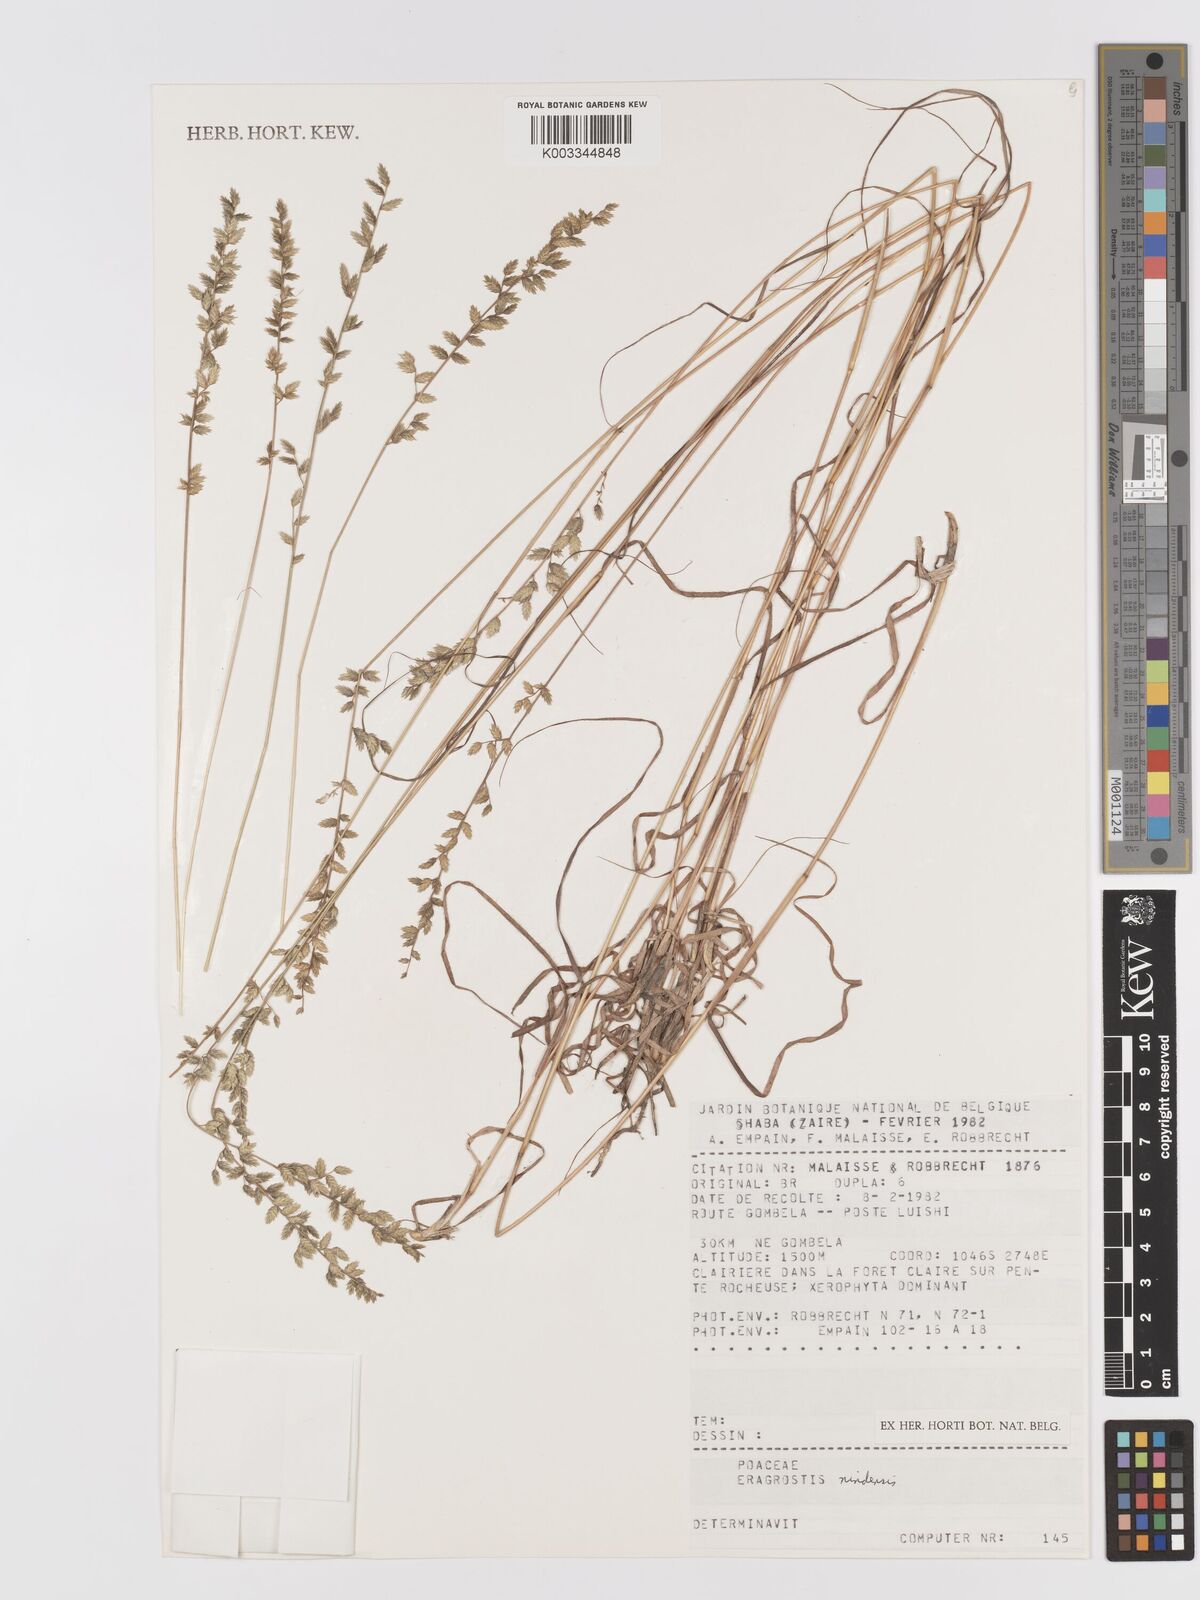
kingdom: Plantae
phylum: Tracheophyta
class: Liliopsida
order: Poales
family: Poaceae
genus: Eragrostis
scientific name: Eragrostis nindensis
